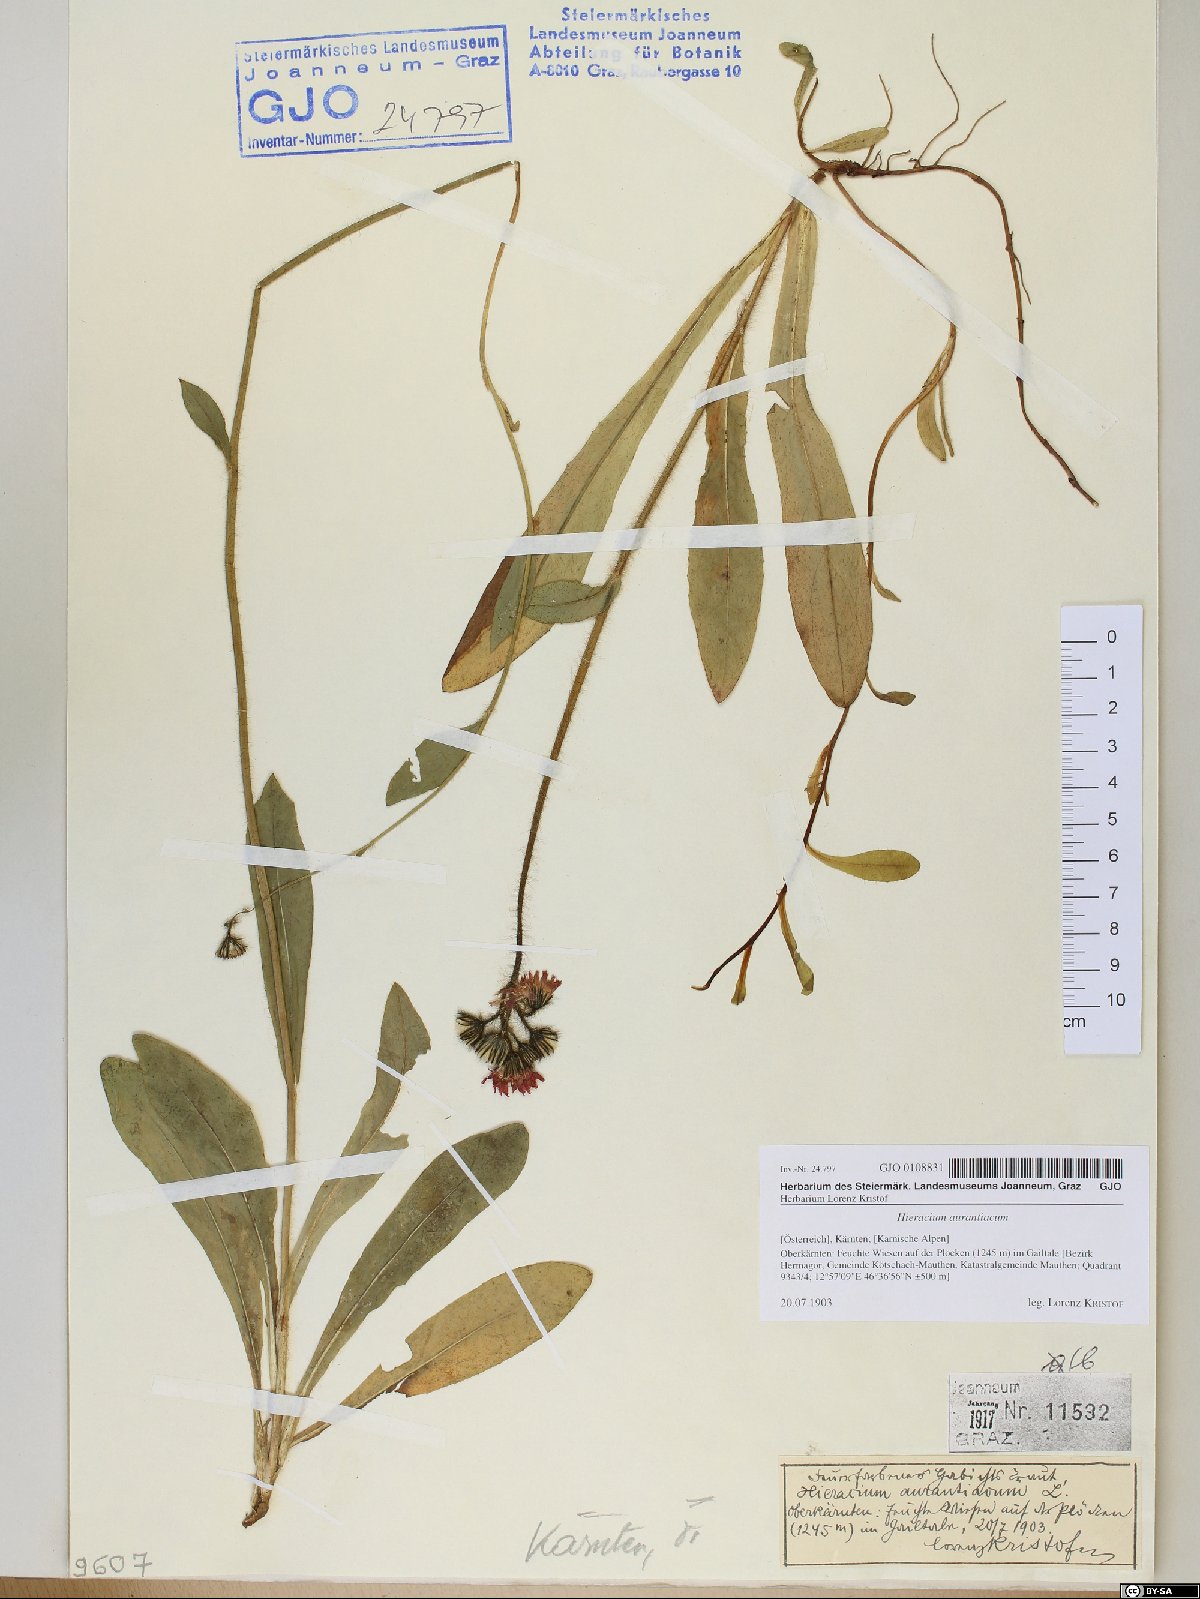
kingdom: Plantae
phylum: Tracheophyta
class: Magnoliopsida
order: Asterales
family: Asteraceae
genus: Pilosella
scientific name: Pilosella aurantiaca
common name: Fox-and-cubs
